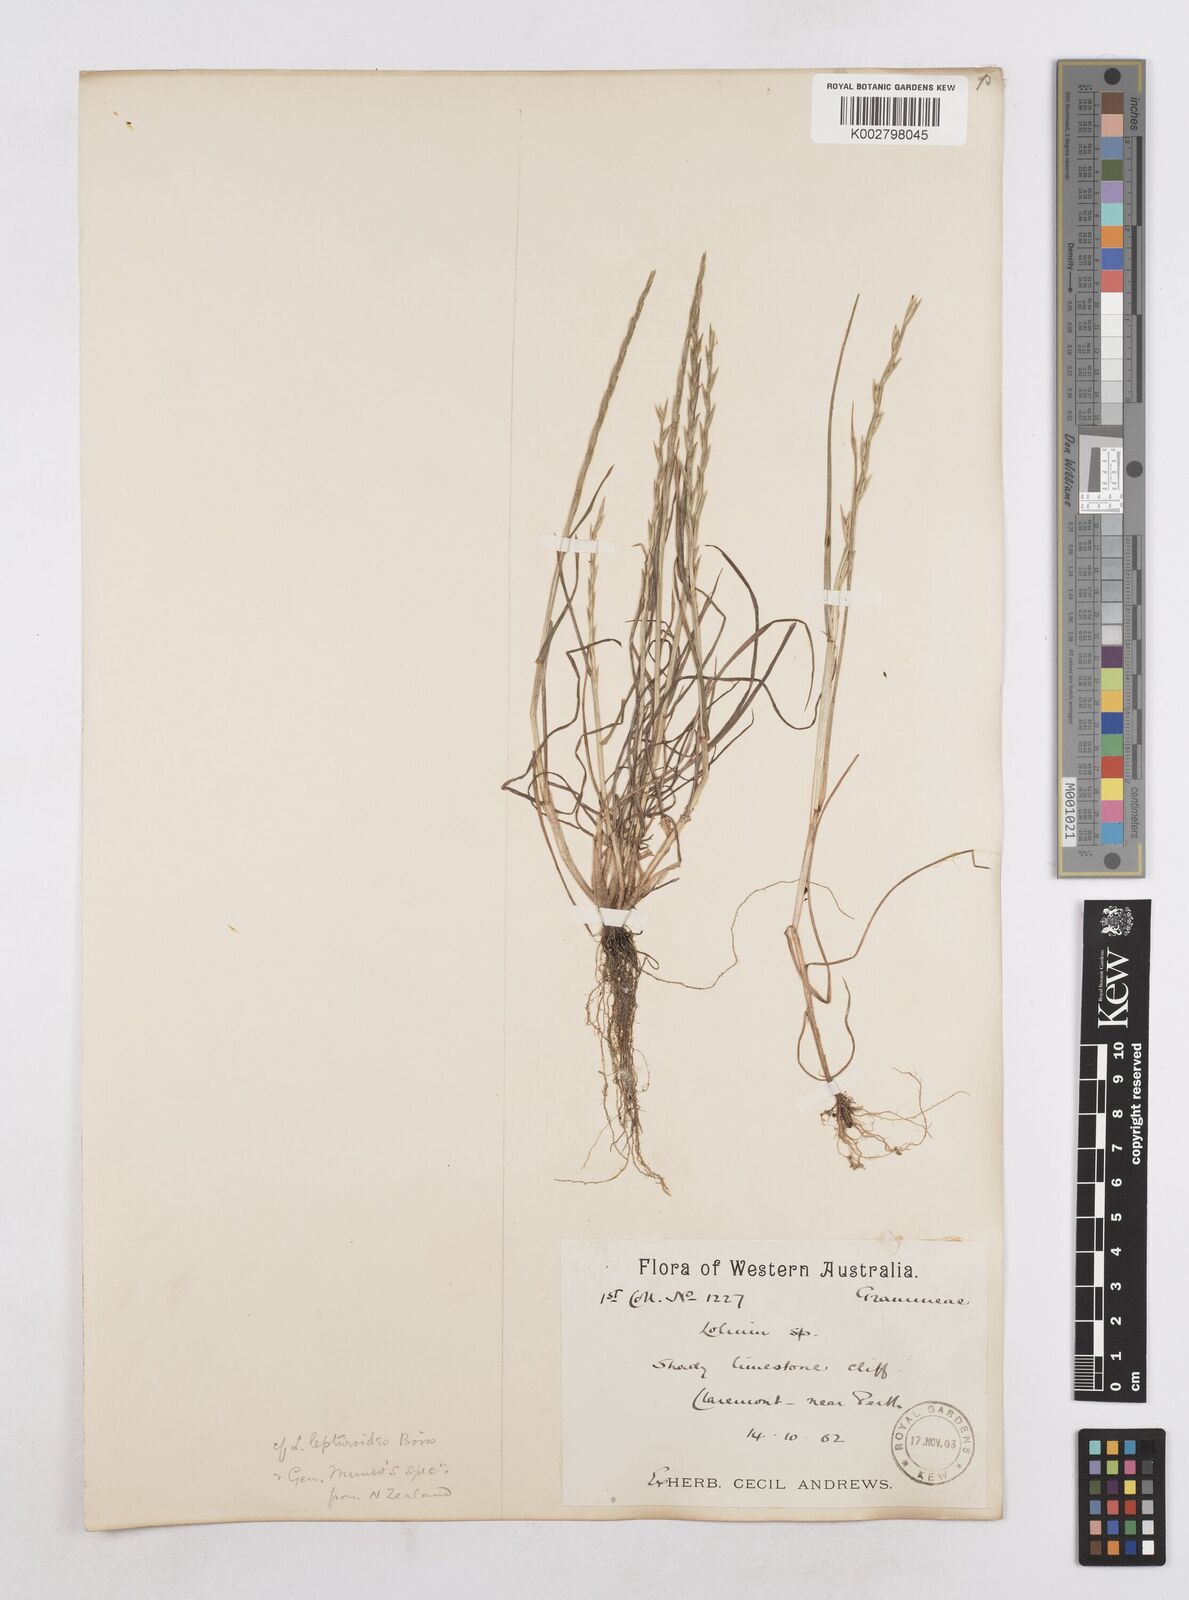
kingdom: Plantae
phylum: Tracheophyta
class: Liliopsida
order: Poales
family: Poaceae
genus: Lolium
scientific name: Lolium
